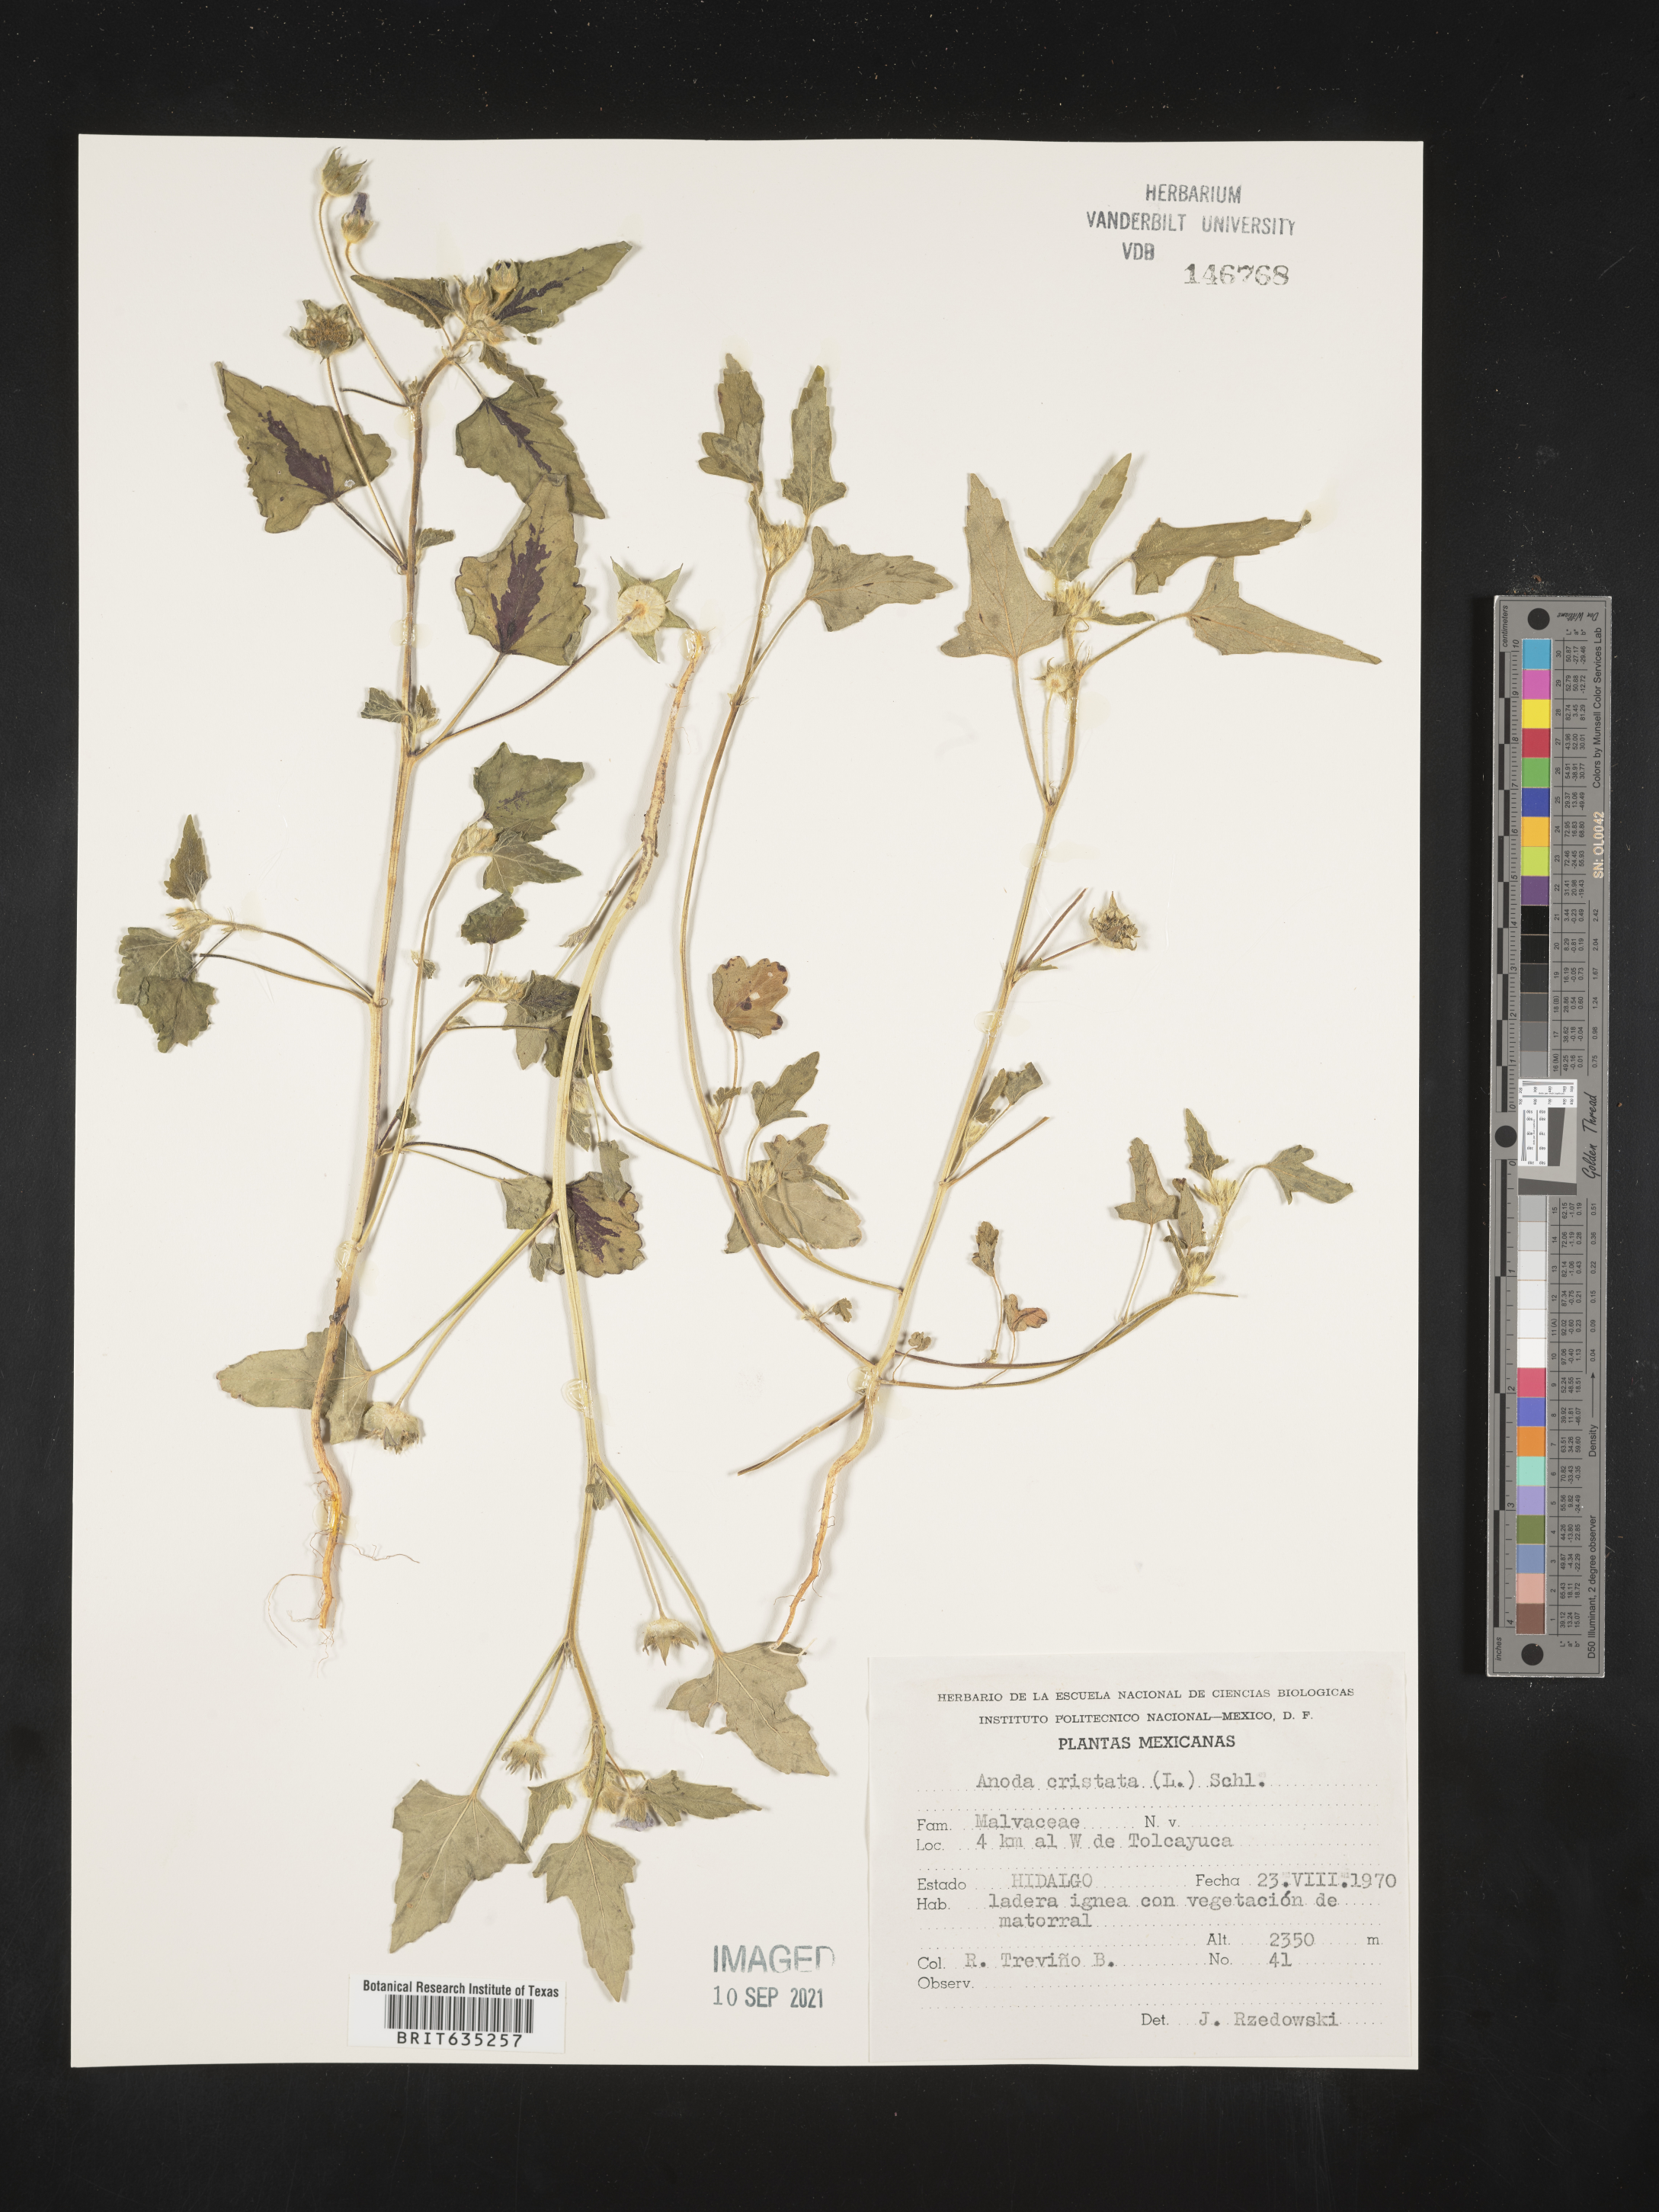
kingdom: Plantae
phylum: Tracheophyta
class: Magnoliopsida
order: Malvales
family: Malvaceae
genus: Anoda
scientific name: Anoda
